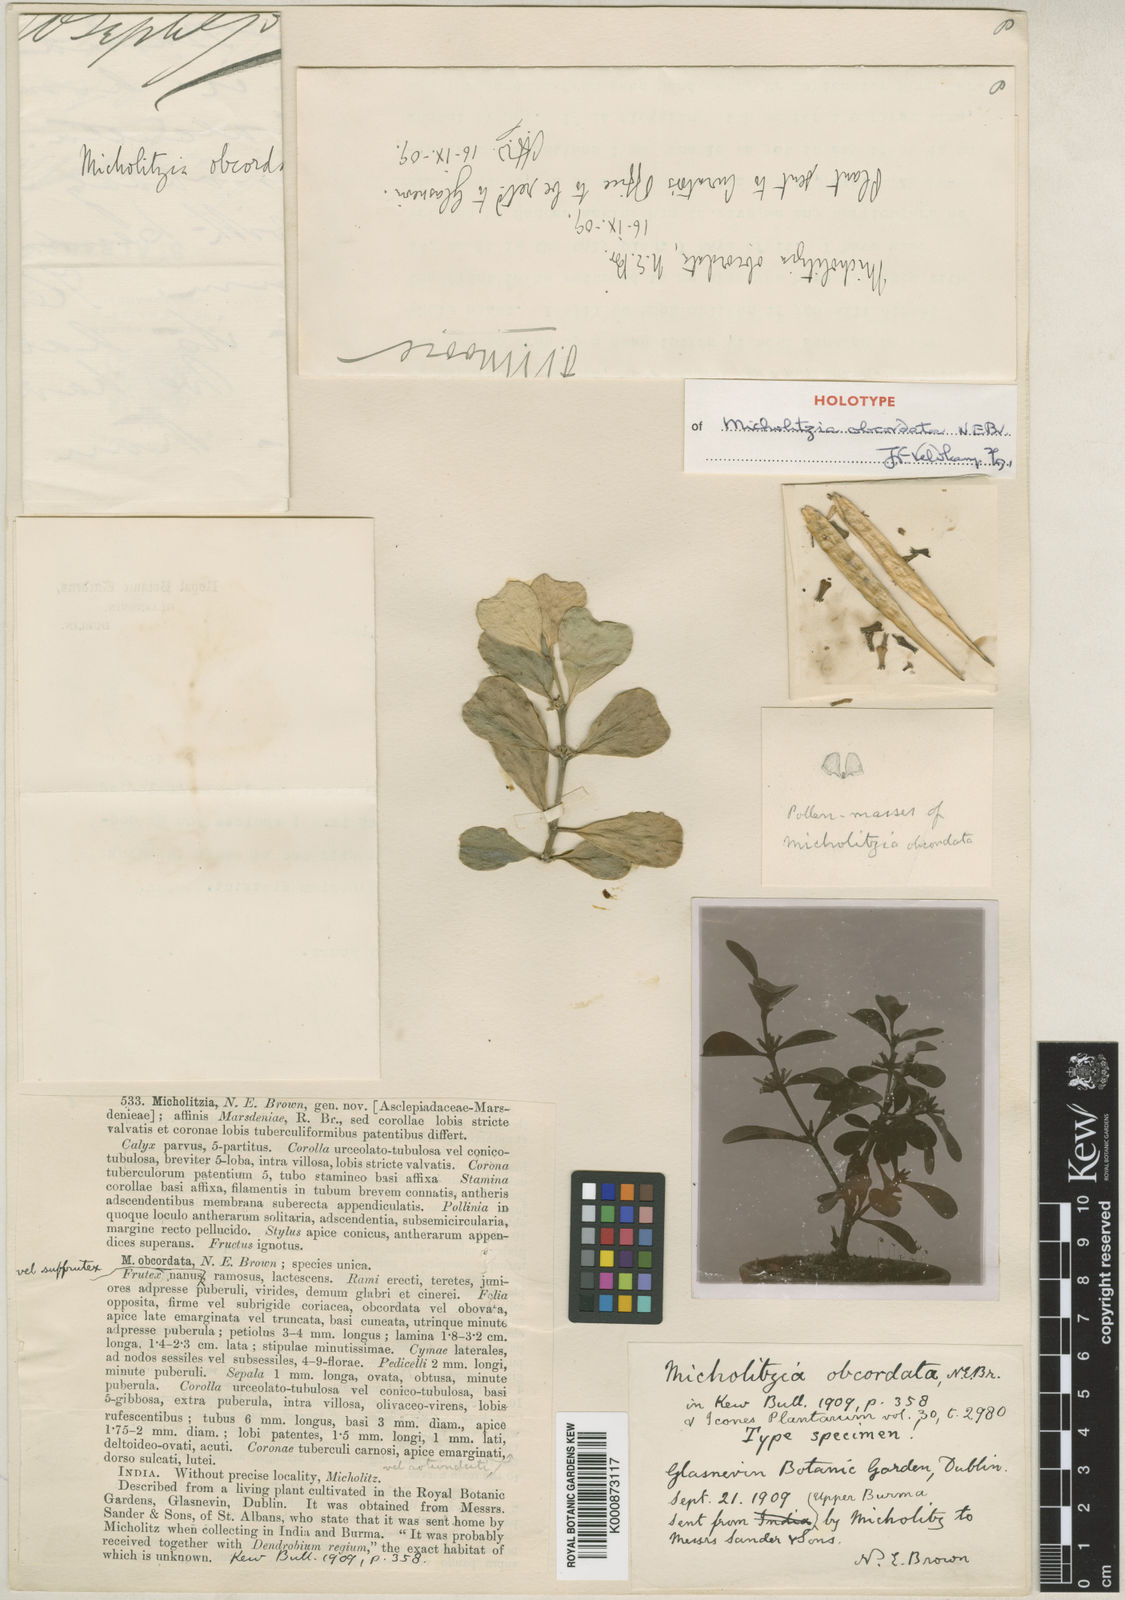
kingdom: Plantae
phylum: Tracheophyta
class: Magnoliopsida
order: Gentianales
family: Apocynaceae
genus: Hoya
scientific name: Hoya manipurensis
